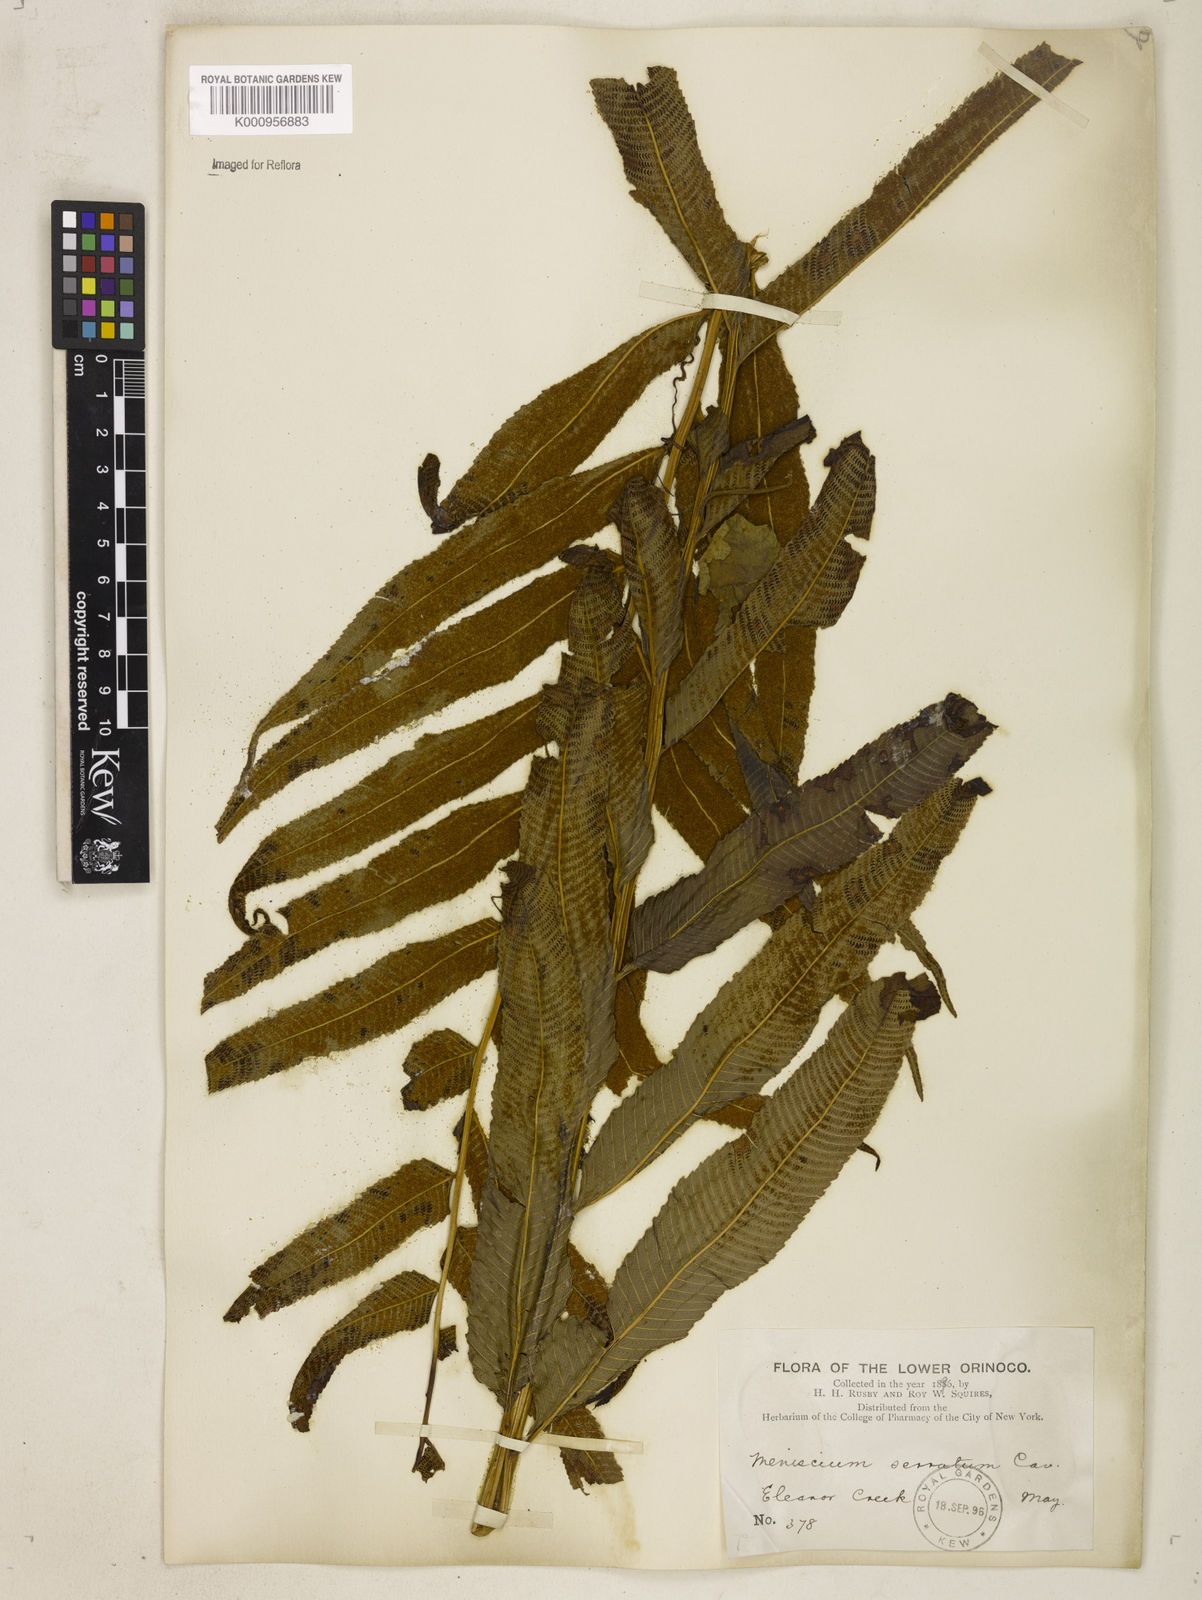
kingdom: Plantae
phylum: Tracheophyta
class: Polypodiopsida
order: Polypodiales
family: Thelypteridaceae
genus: Meniscium
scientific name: Meniscium serratum
